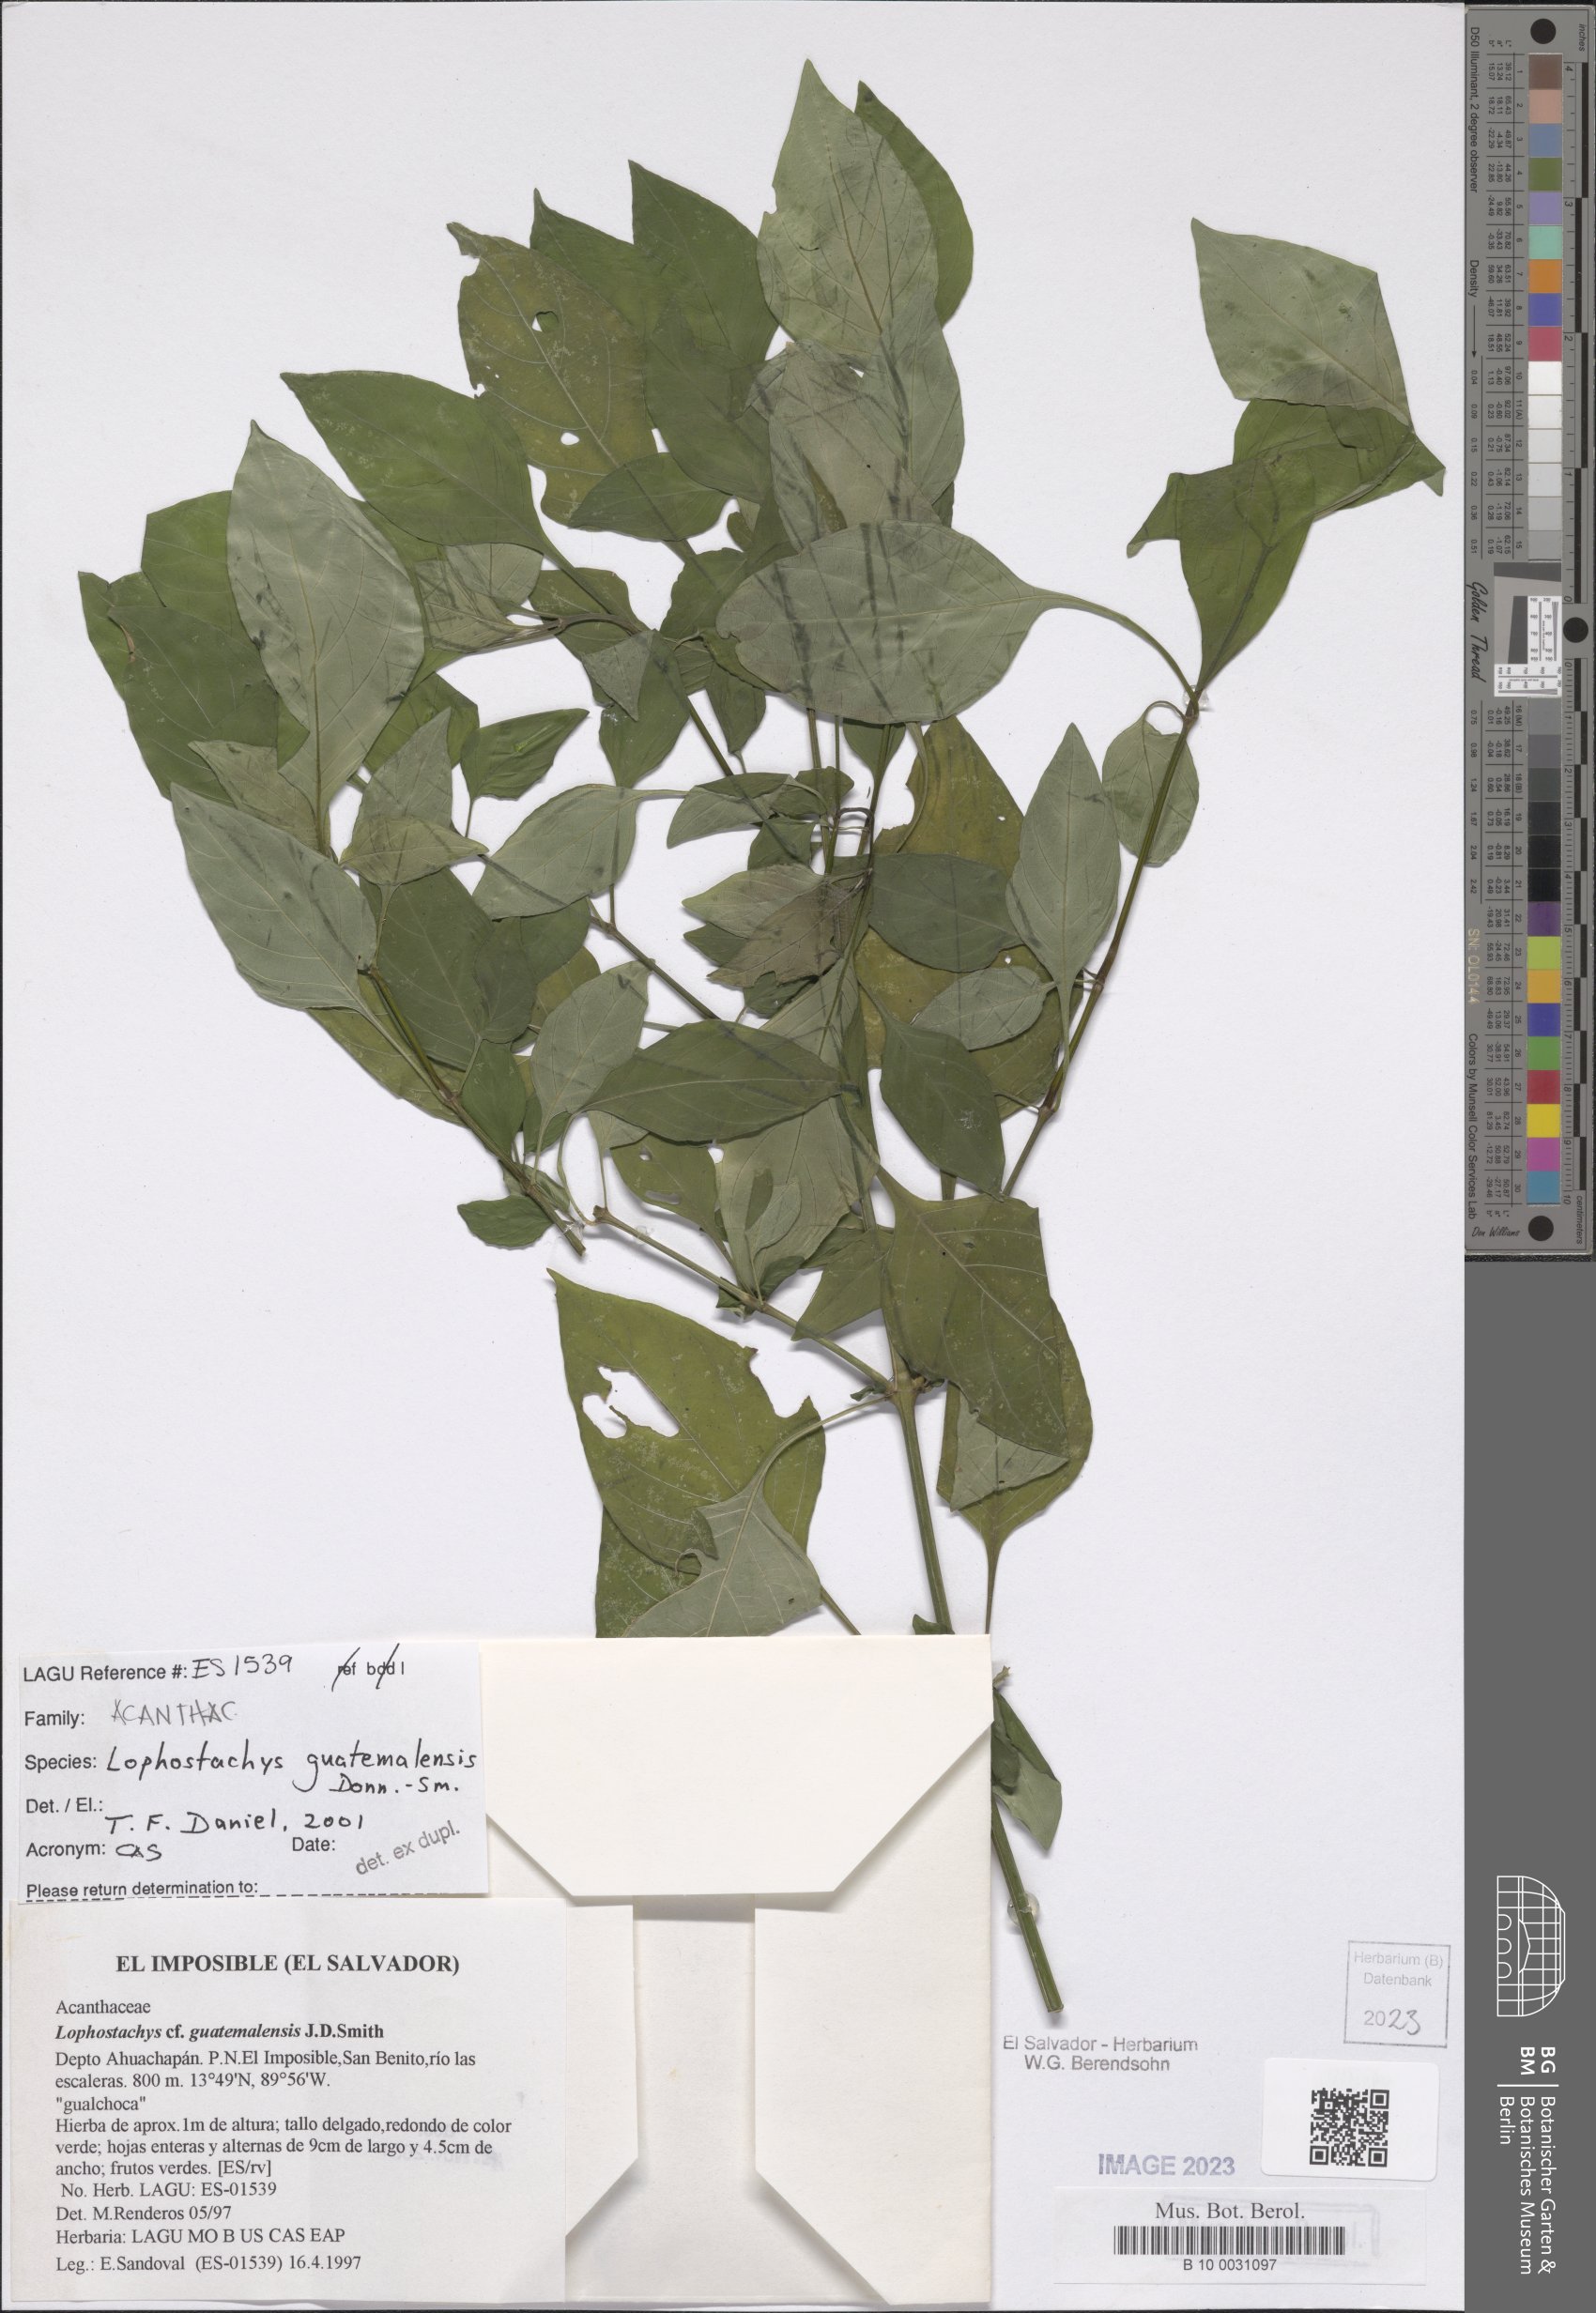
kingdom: Plantae
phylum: Tracheophyta
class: Magnoliopsida
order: Lamiales
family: Acanthaceae
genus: Lepidagathis
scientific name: Lepidagathis guatemalensis
